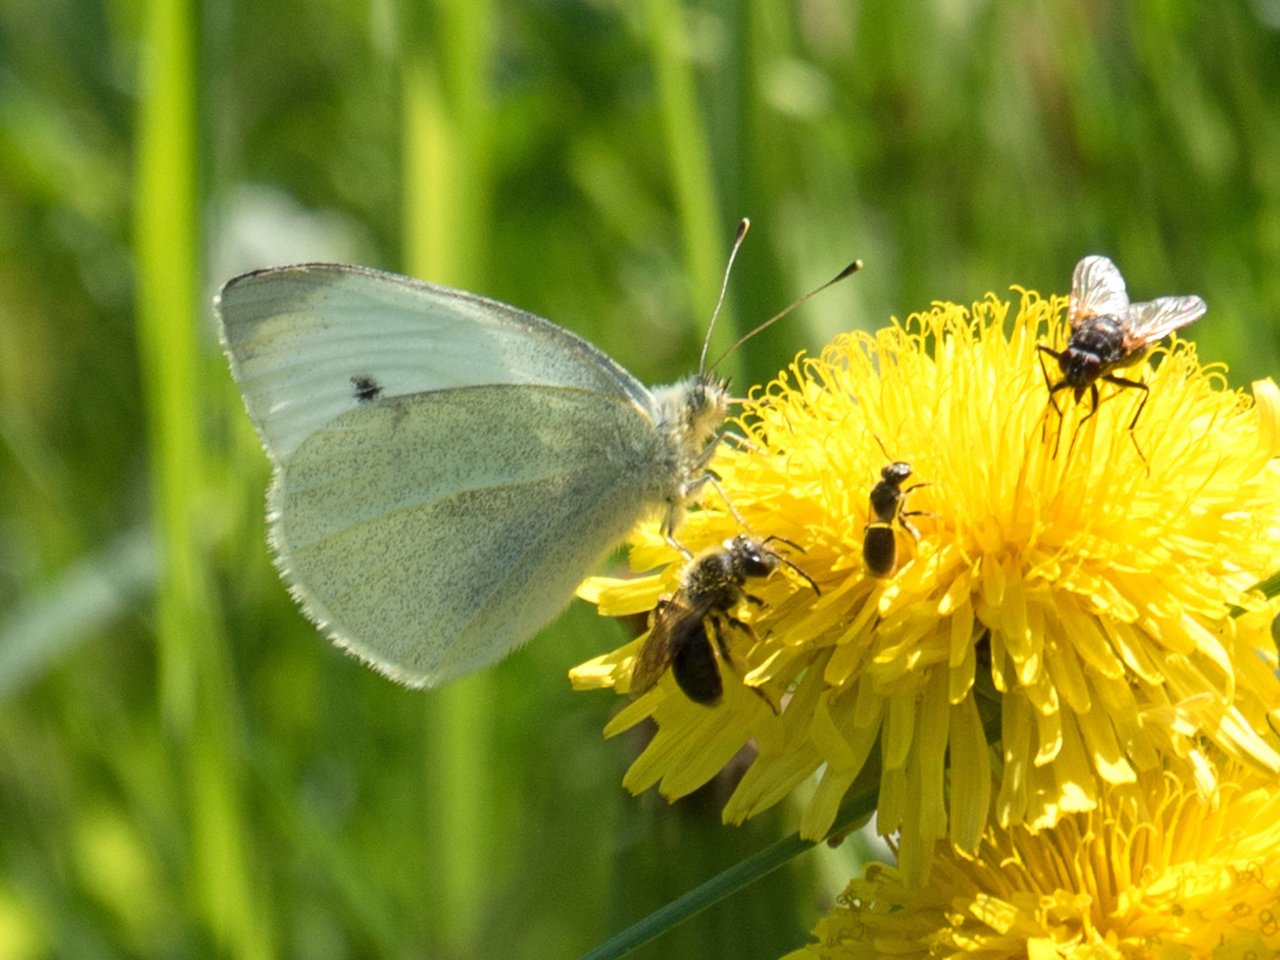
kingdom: Animalia
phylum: Arthropoda
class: Insecta
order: Lepidoptera
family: Pieridae
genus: Pieris
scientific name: Pieris rapae
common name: Cabbage White
